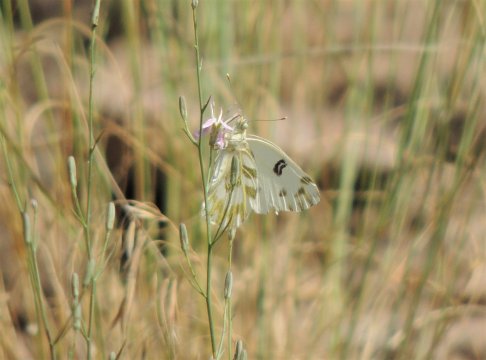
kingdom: Animalia
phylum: Arthropoda
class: Insecta
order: Lepidoptera
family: Pieridae
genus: Pontia
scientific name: Pontia beckerii
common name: Becker's White
